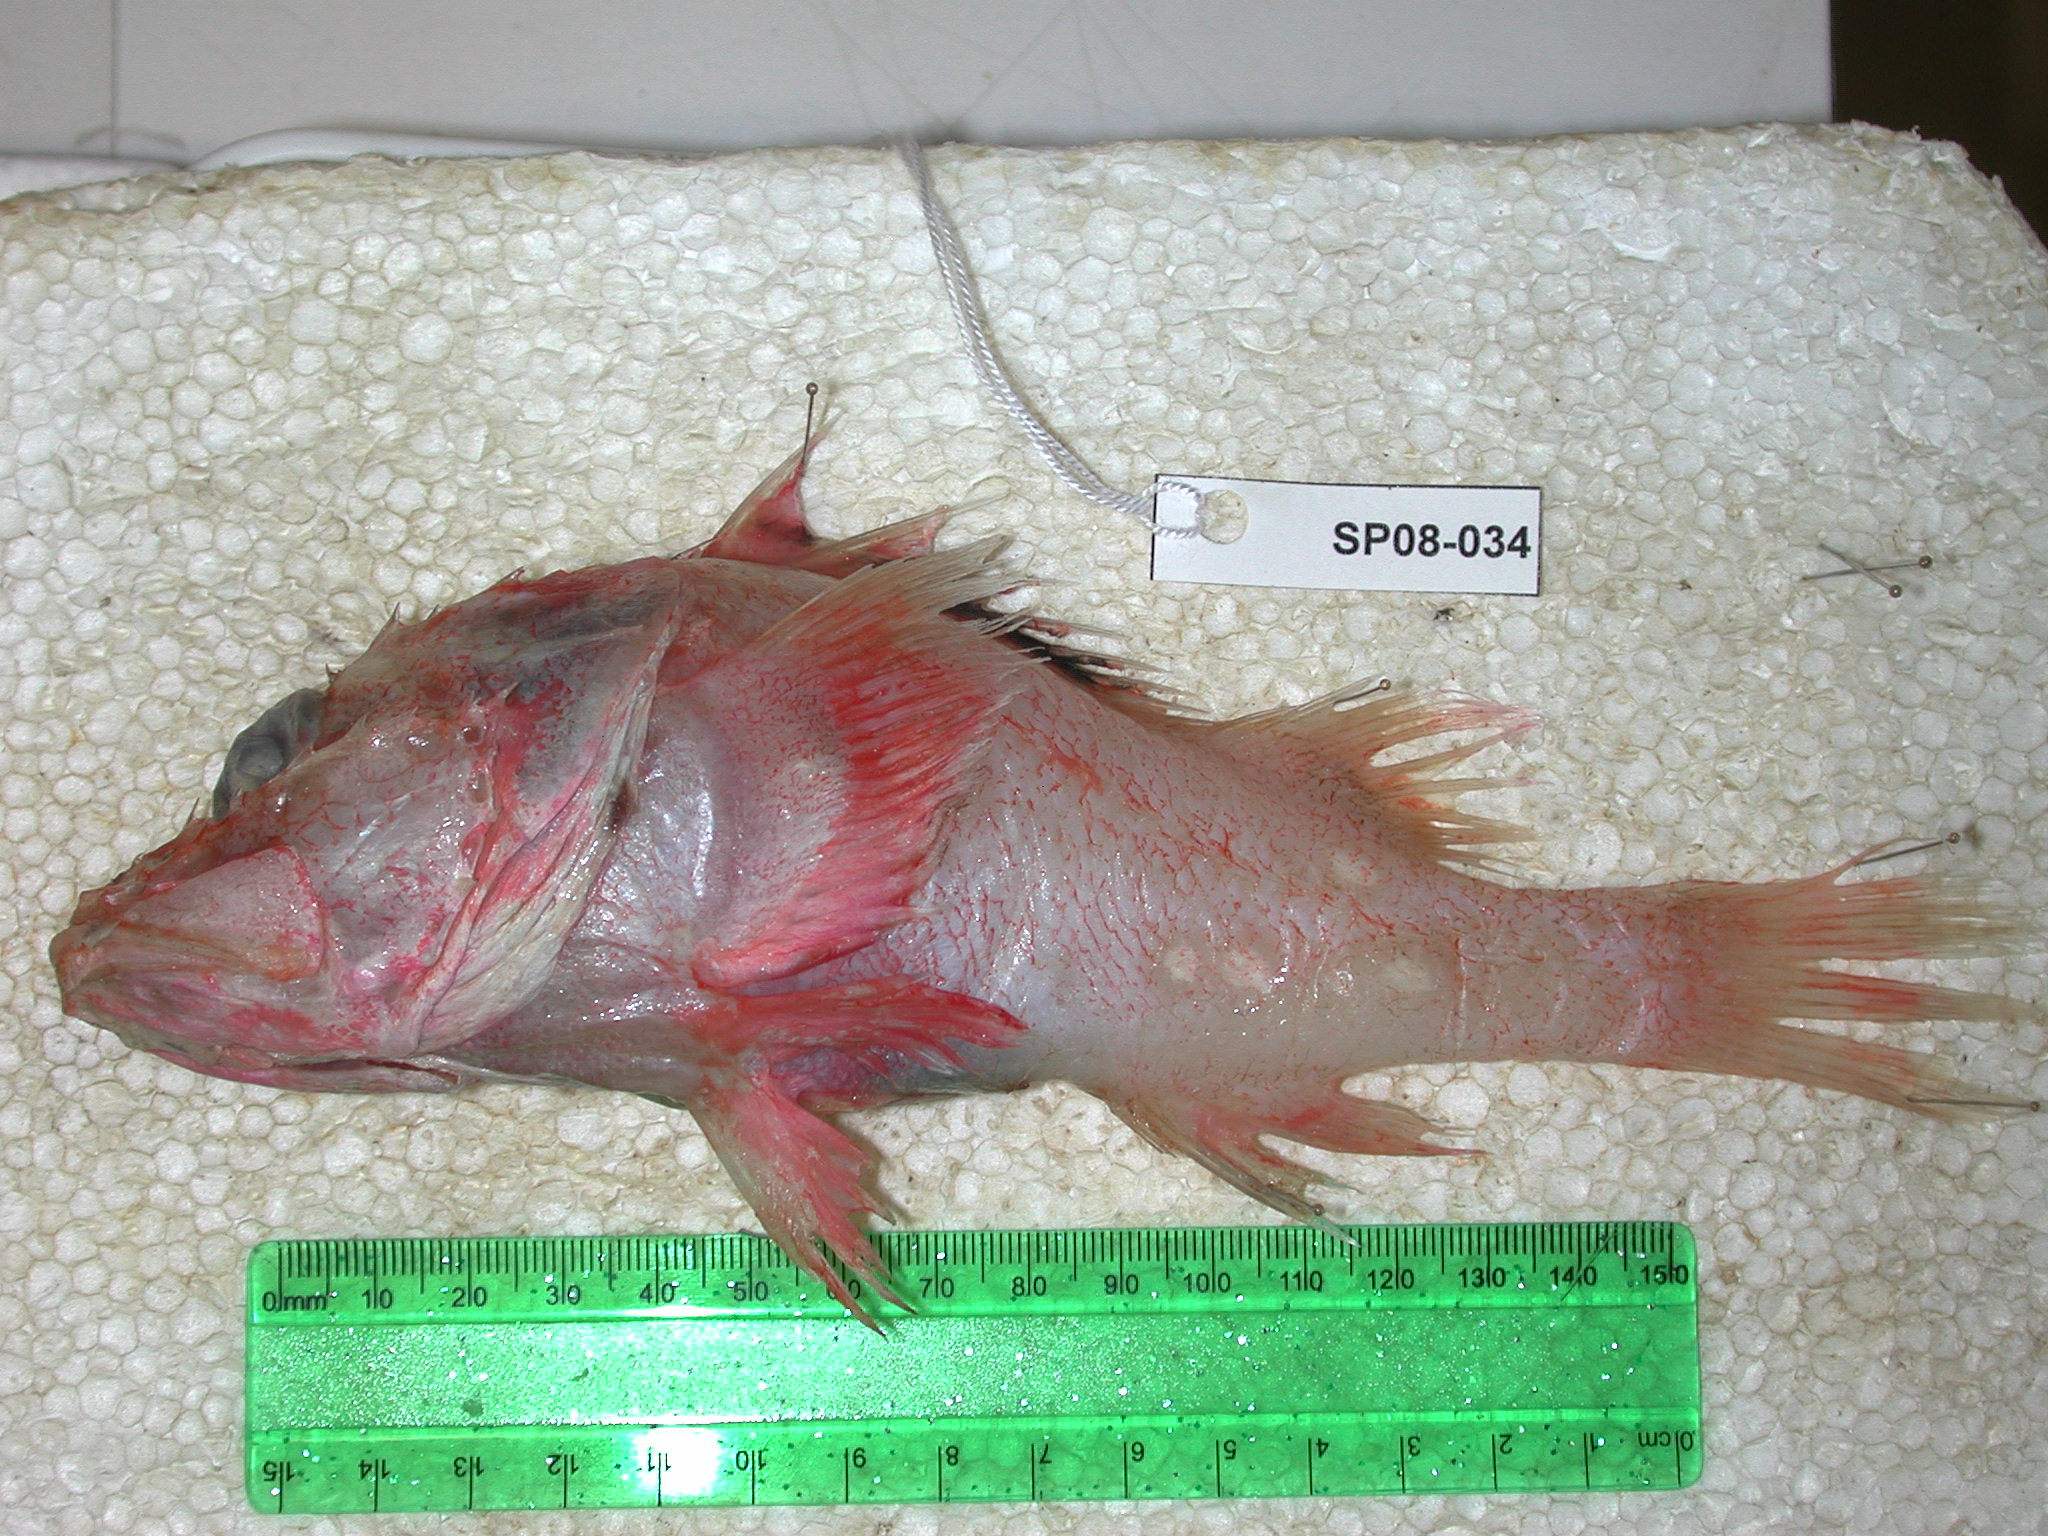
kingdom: Animalia
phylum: Chordata
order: Scorpaeniformes
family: Sebastidae
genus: Trachyscorpia
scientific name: Trachyscorpia eschmeyeri
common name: Cape scorpionfish
